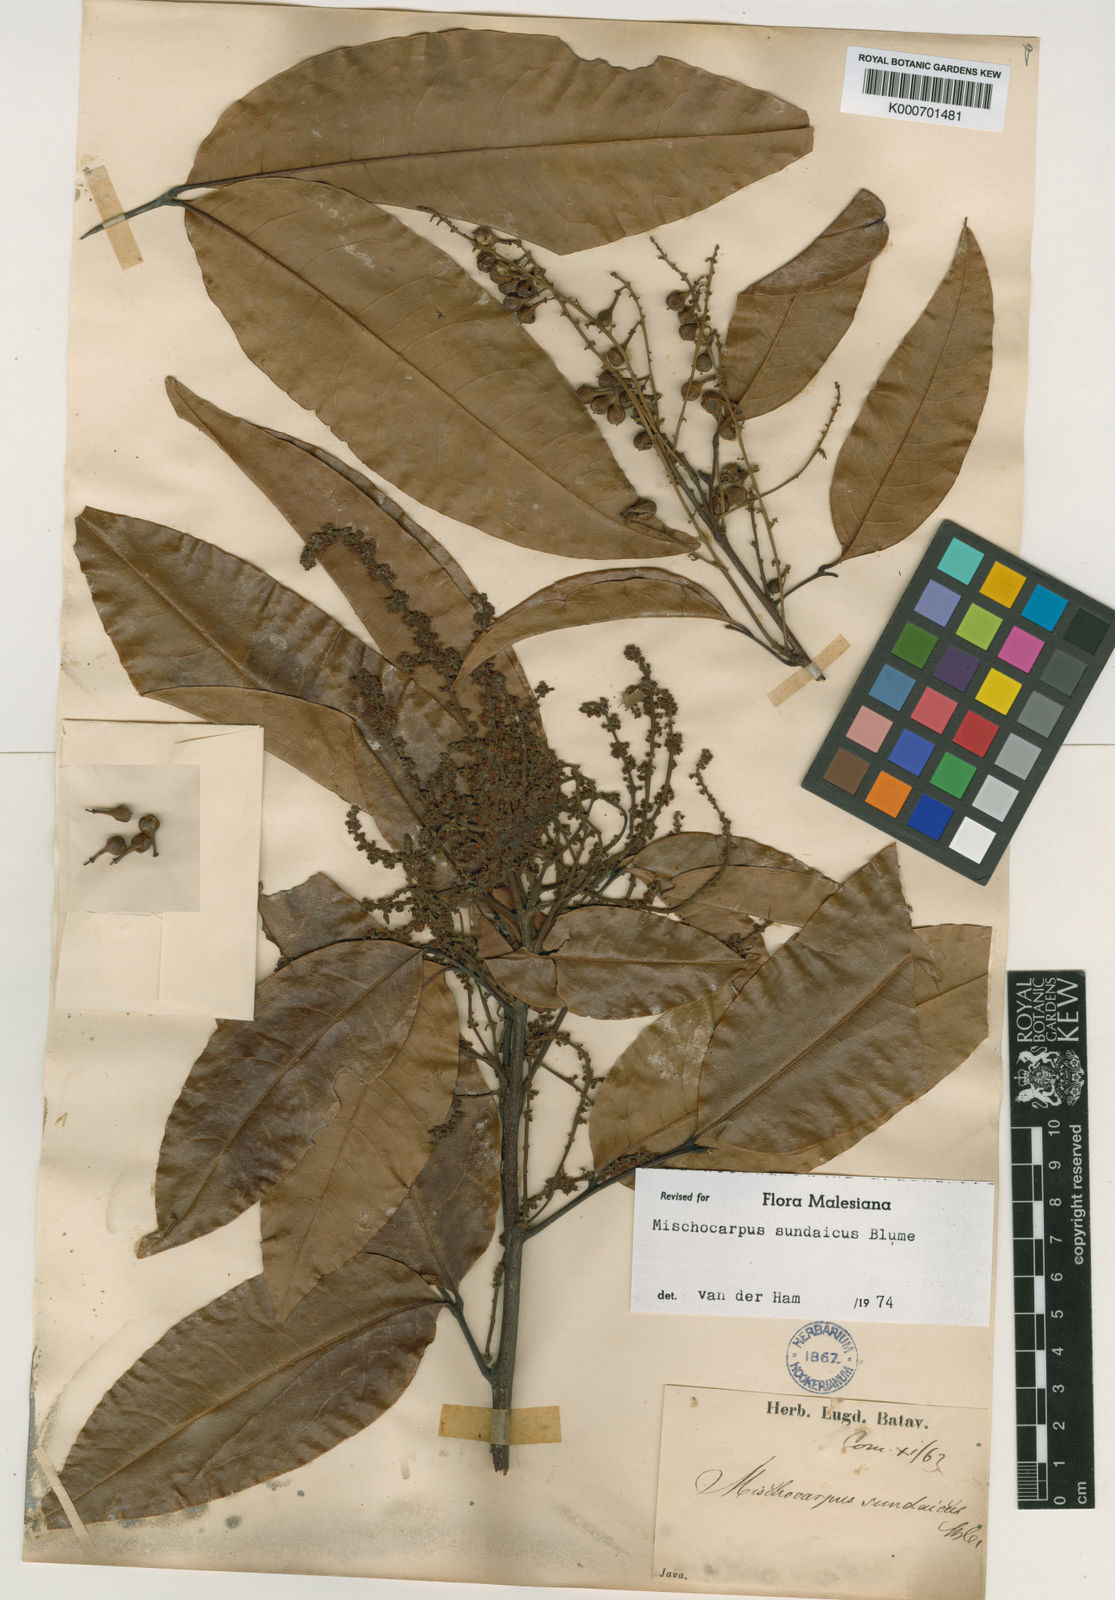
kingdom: Plantae
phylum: Tracheophyta
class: Magnoliopsida
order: Sapindales
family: Sapindaceae
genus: Mischocarpus
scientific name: Mischocarpus sundaicus
